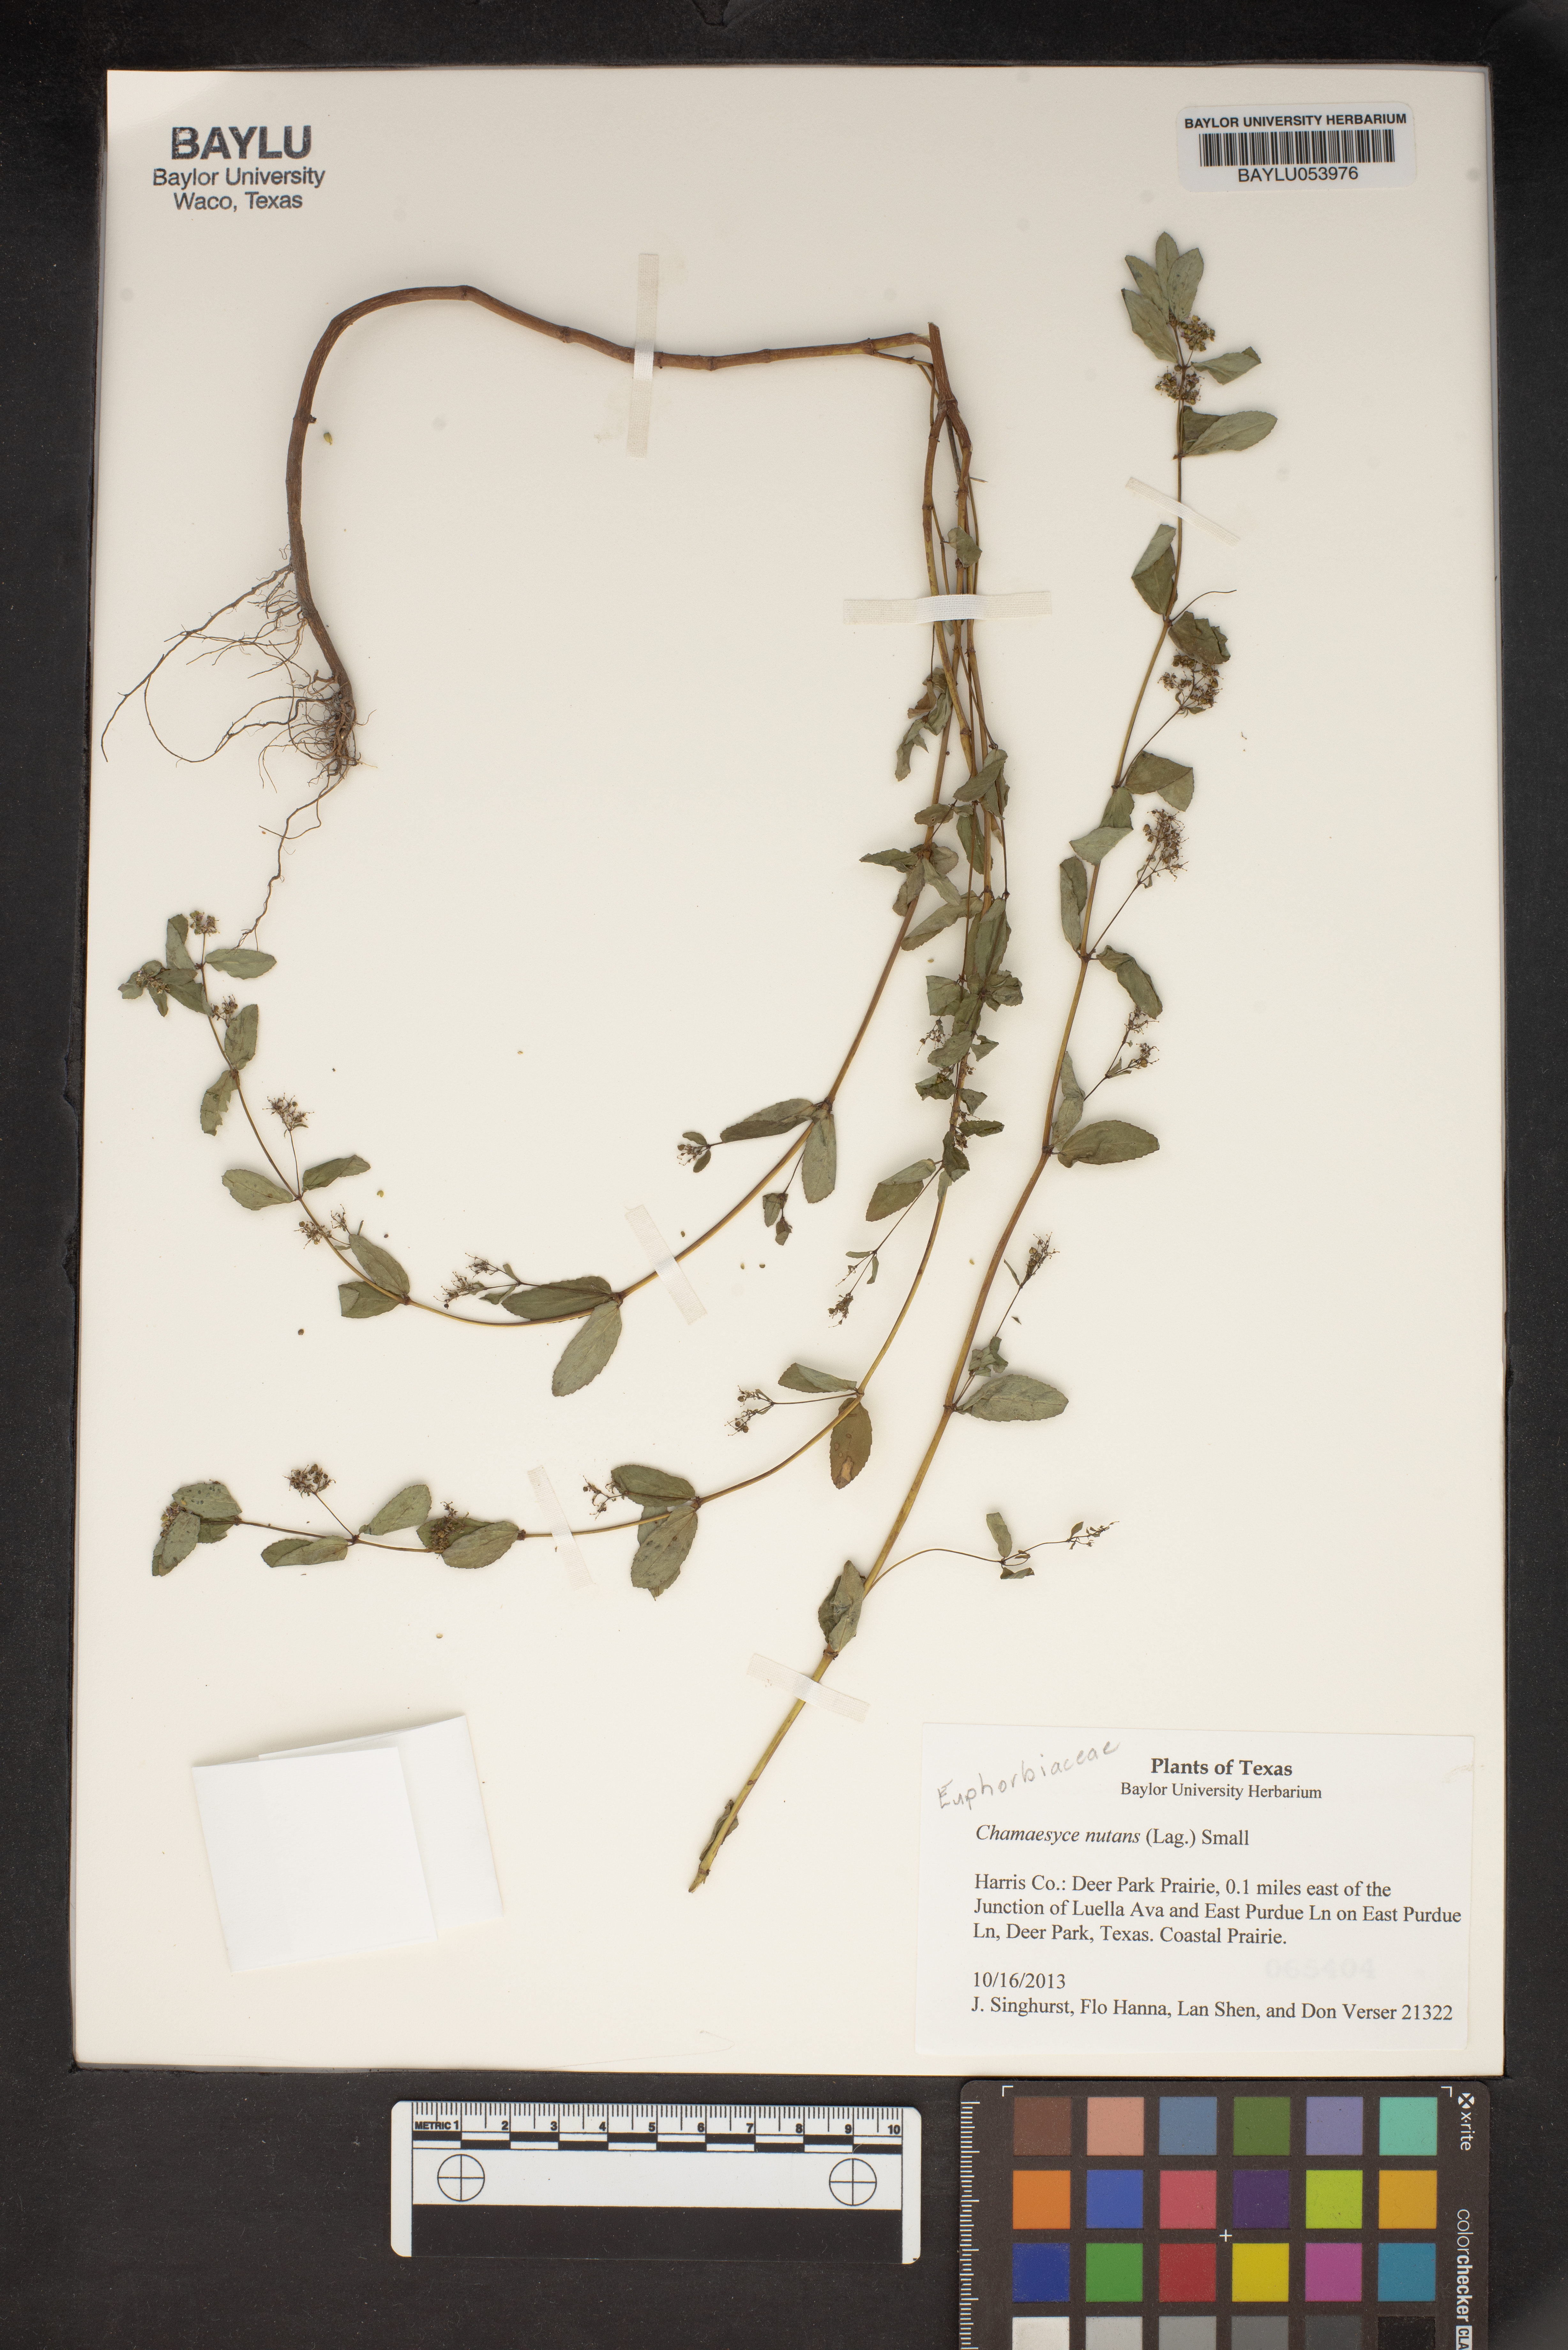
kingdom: Plantae
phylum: Tracheophyta
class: Magnoliopsida
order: Malpighiales
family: Euphorbiaceae
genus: Euphorbia
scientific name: Euphorbia nutans
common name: Eyebane
